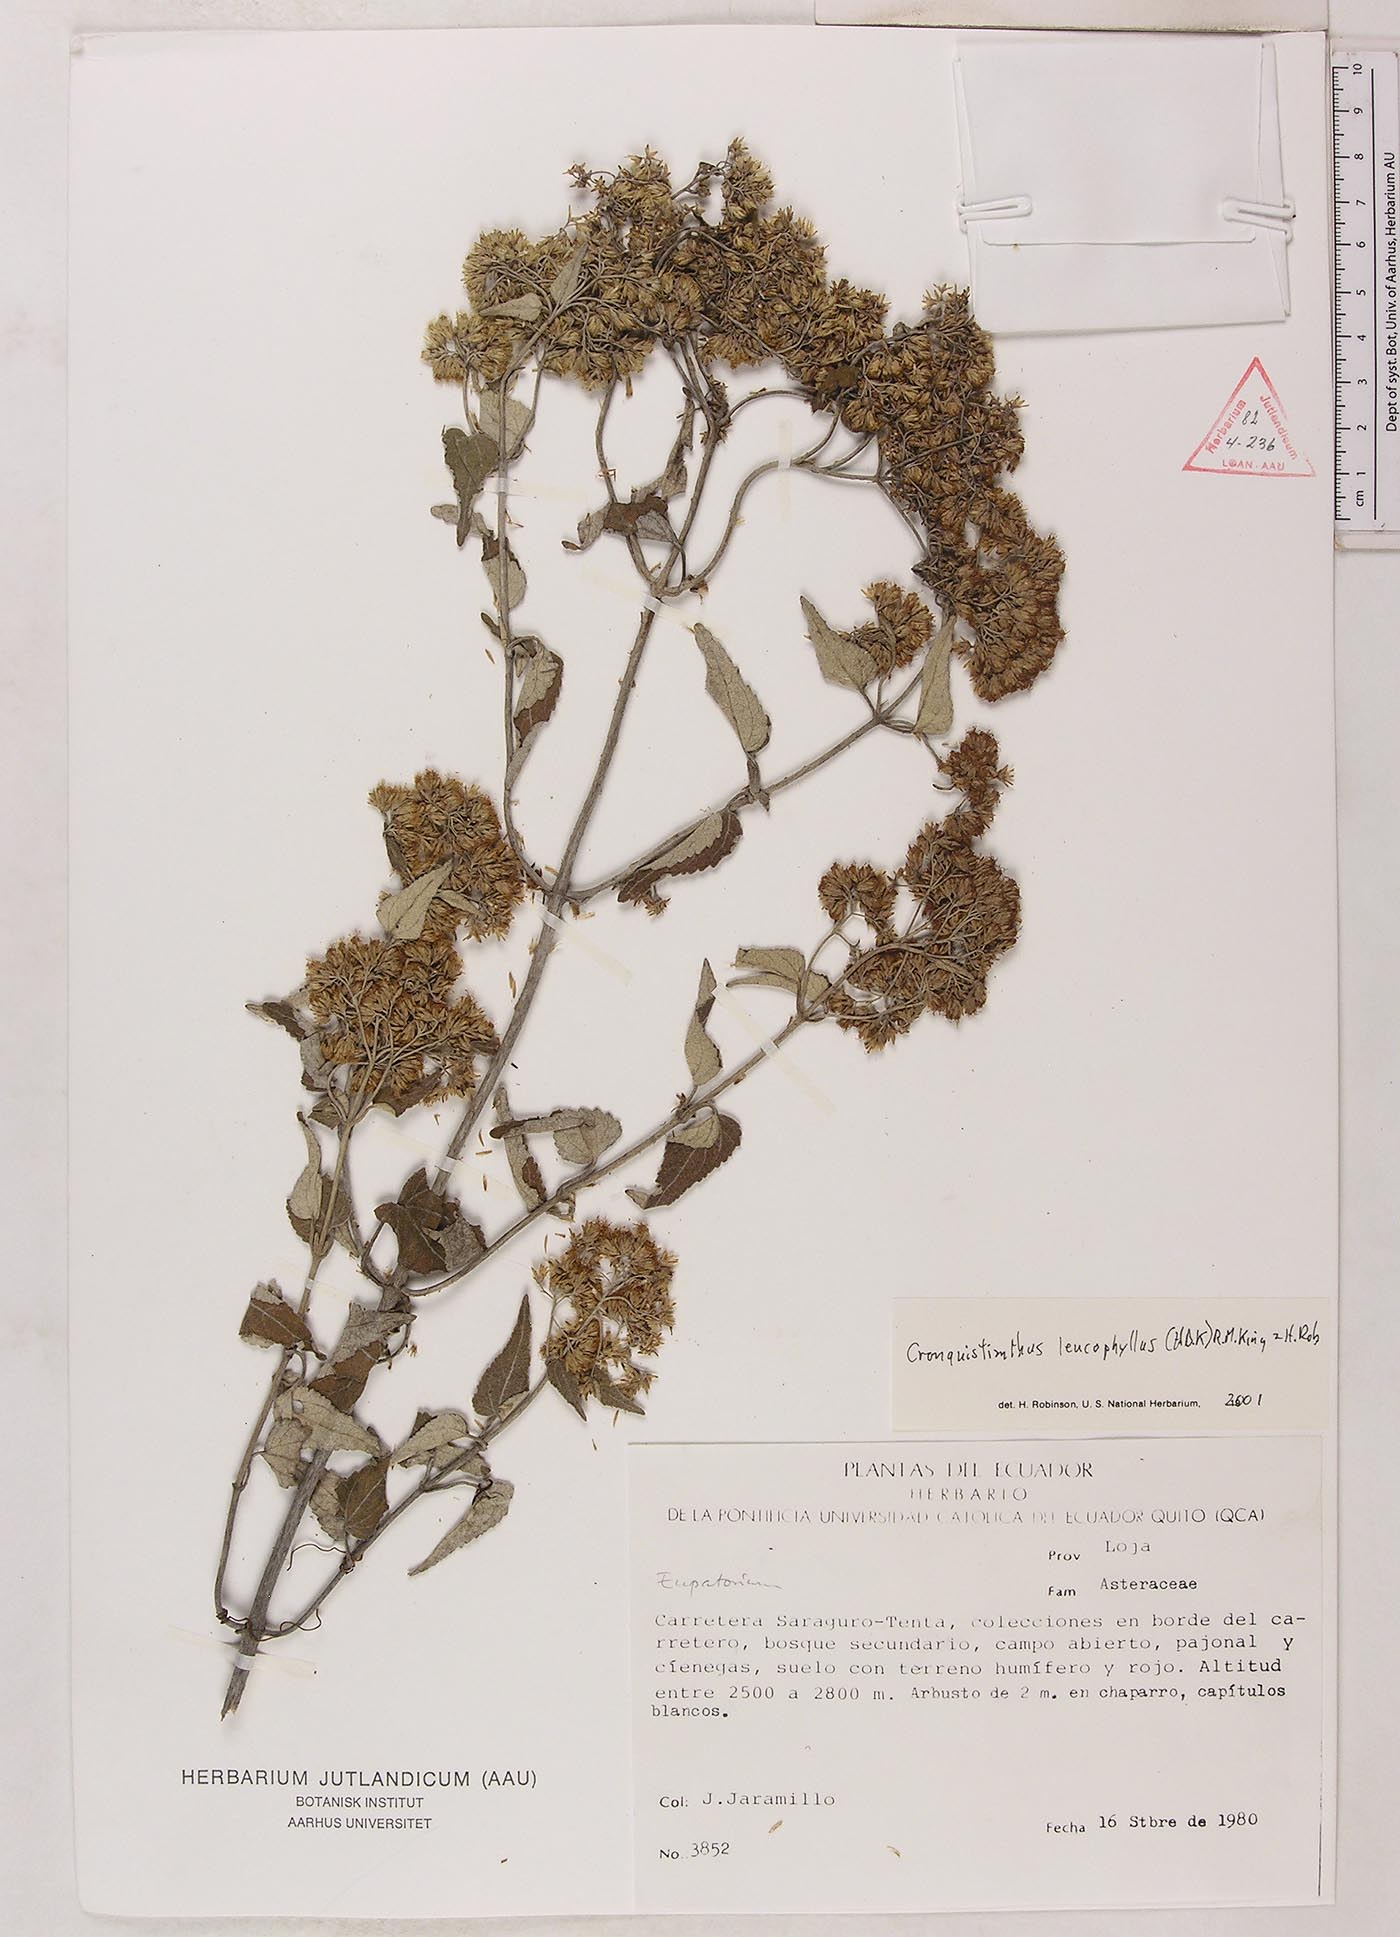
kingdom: Plantae
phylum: Tracheophyta
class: Magnoliopsida
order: Asterales
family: Asteraceae
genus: Cronquistianthus
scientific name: Cronquistianthus leucophyllus
